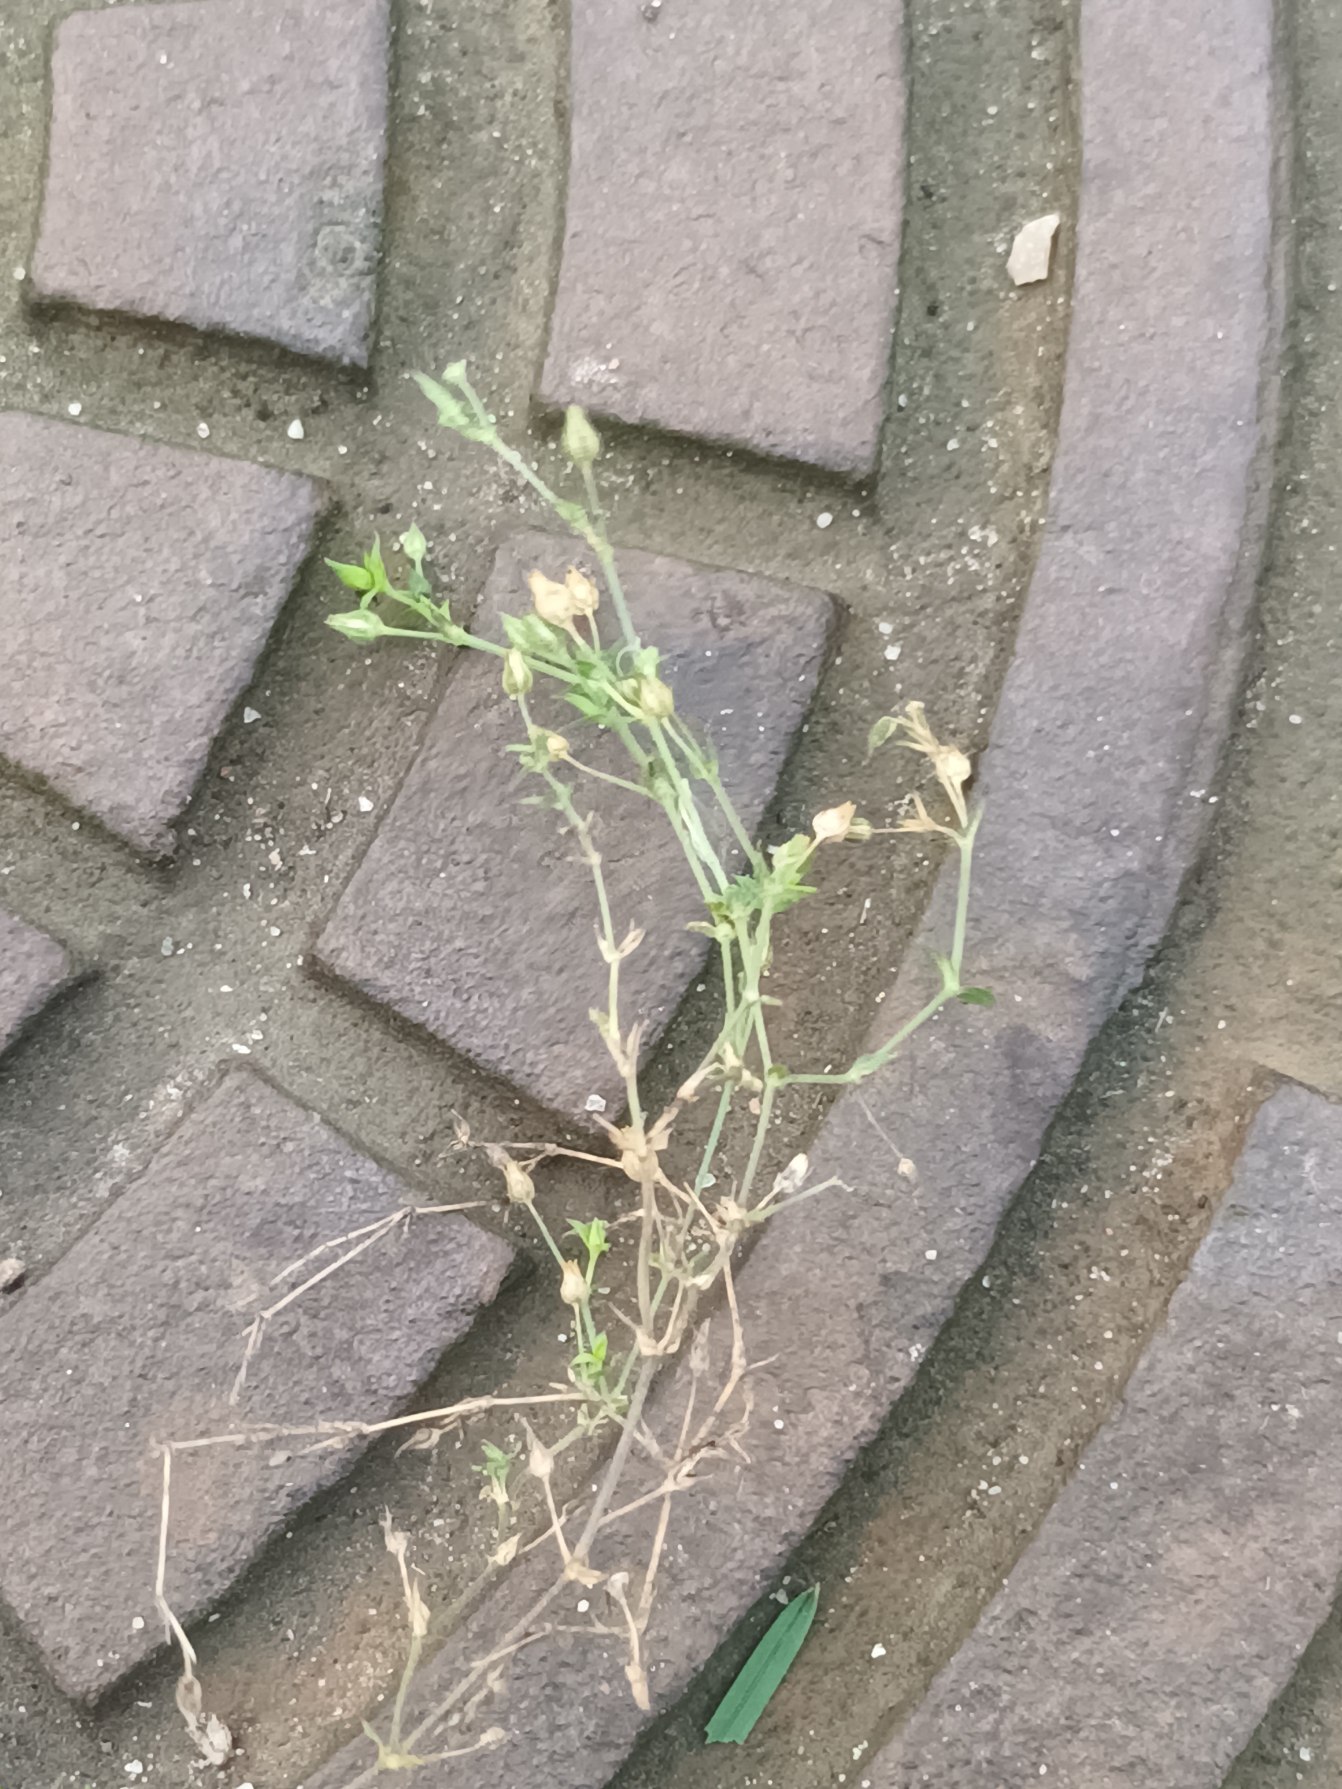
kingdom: Plantae
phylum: Tracheophyta
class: Magnoliopsida
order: Caryophyllales
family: Caryophyllaceae
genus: Arenaria
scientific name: Arenaria serpyllifolia
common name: Almindelig markarve
